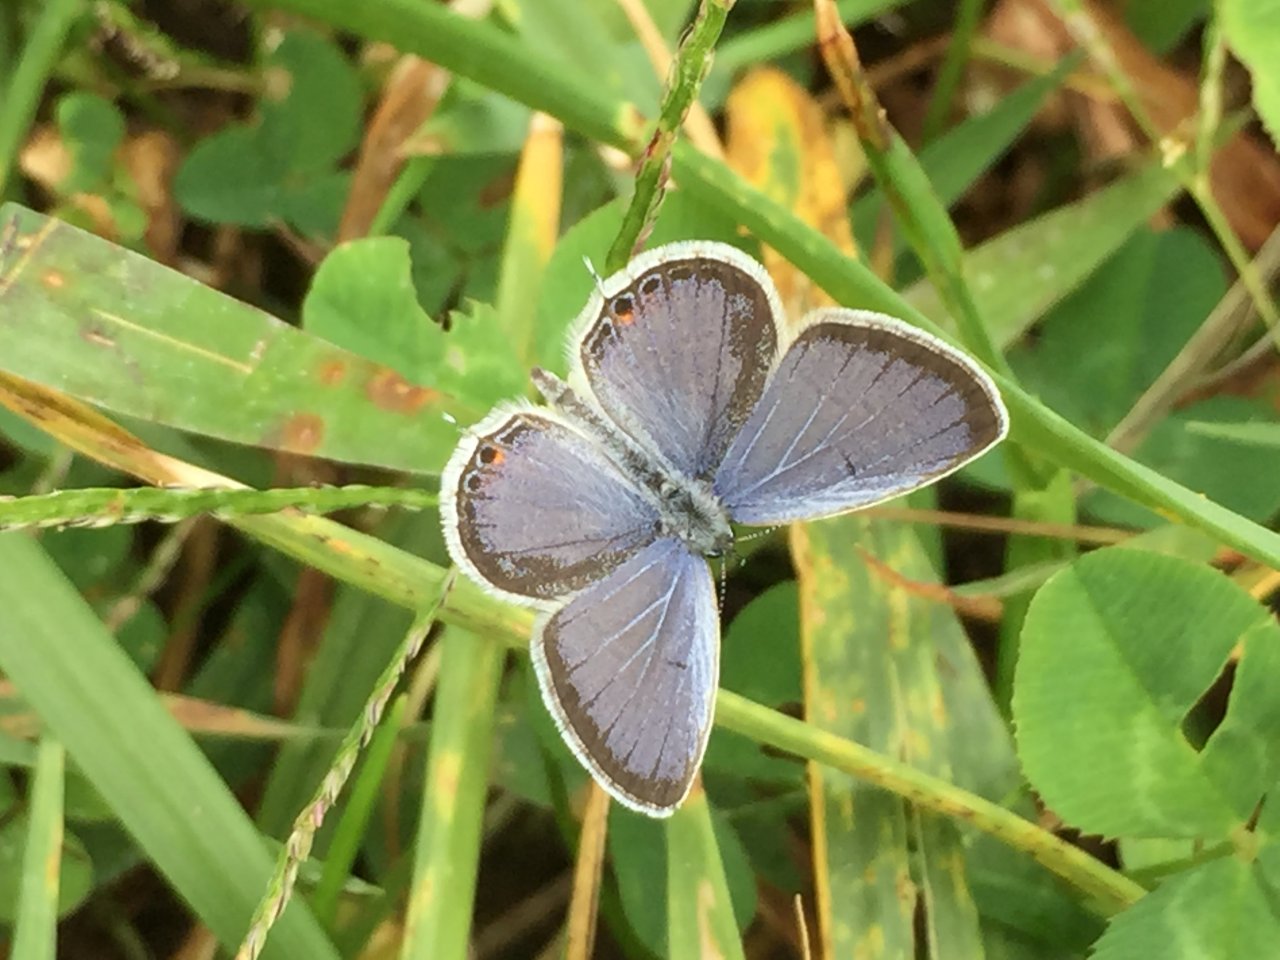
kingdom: Animalia
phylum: Arthropoda
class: Insecta
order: Lepidoptera
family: Lycaenidae
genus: Elkalyce
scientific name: Elkalyce comyntas
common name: Eastern Tailed-Blue
